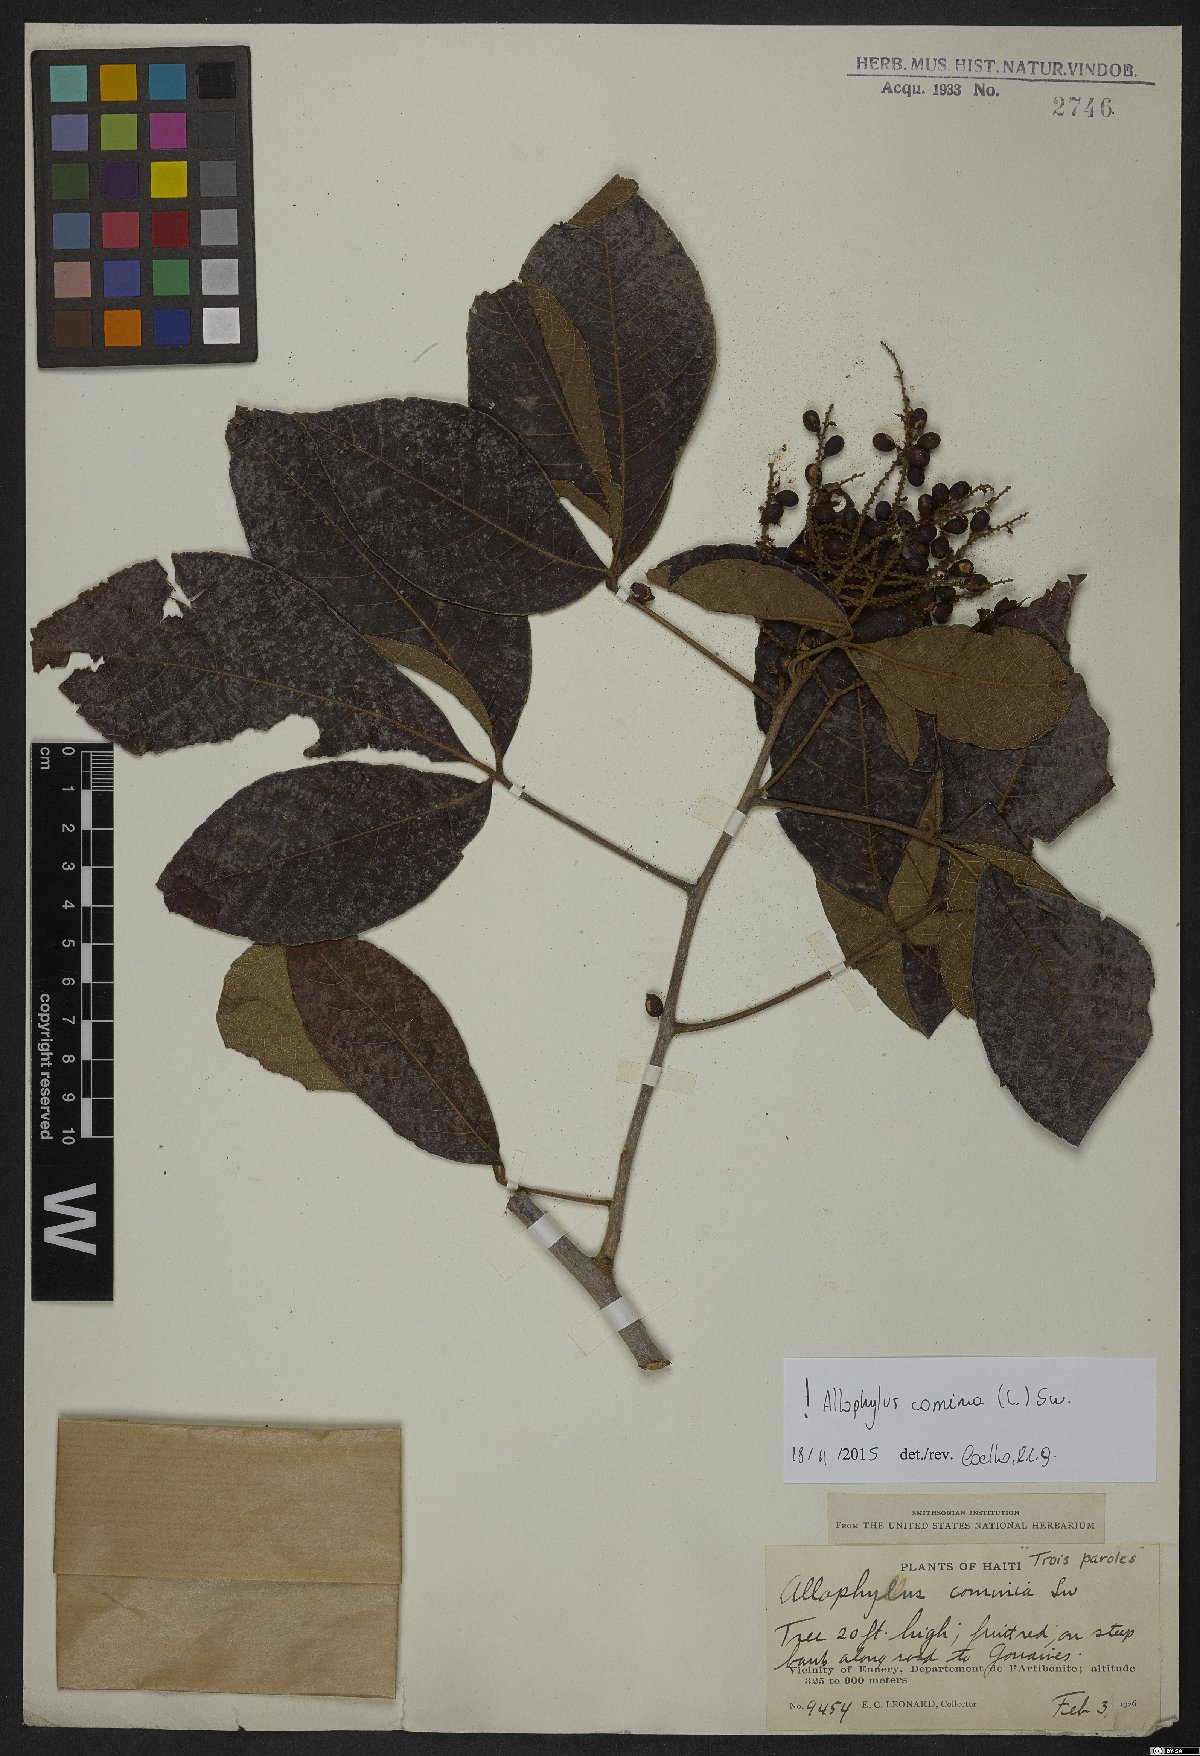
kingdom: Plantae
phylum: Tracheophyta
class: Magnoliopsida
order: Sapindales
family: Sapindaceae
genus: Allophylus
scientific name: Allophylus cominia
